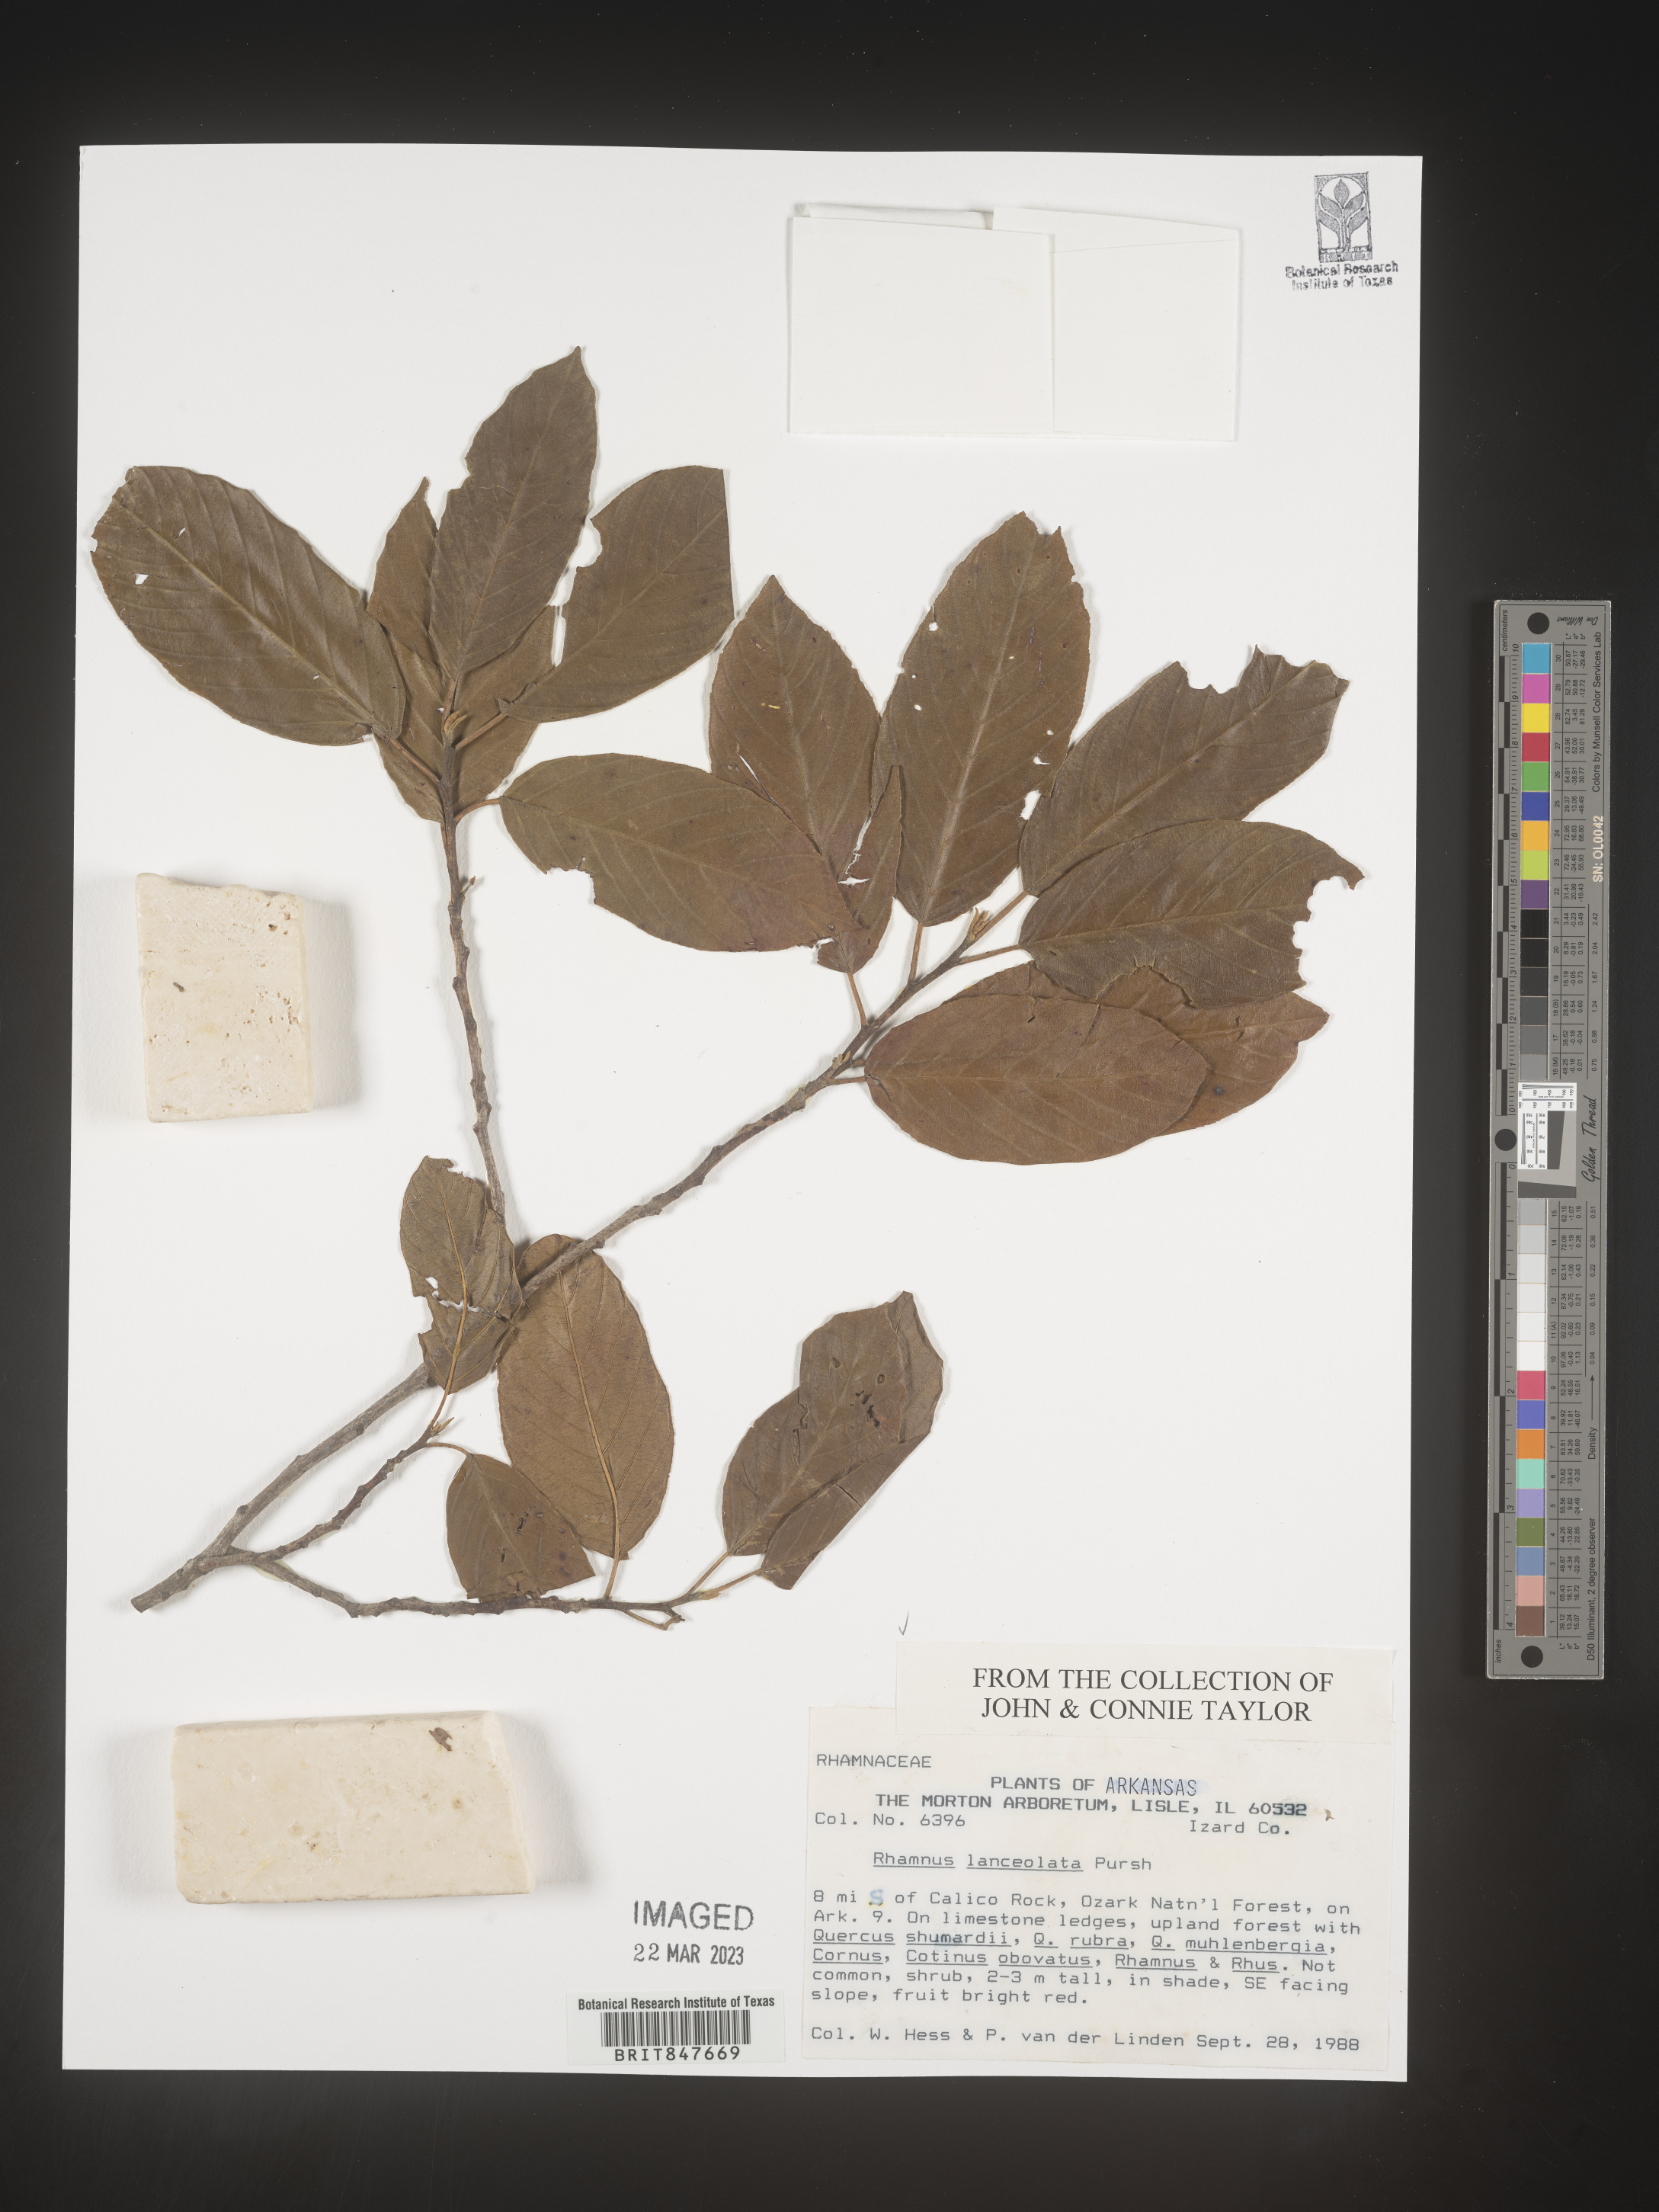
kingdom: Plantae
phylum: Tracheophyta
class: Magnoliopsida
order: Rosales
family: Rhamnaceae
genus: Endotropis
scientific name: Endotropis lanceolata
